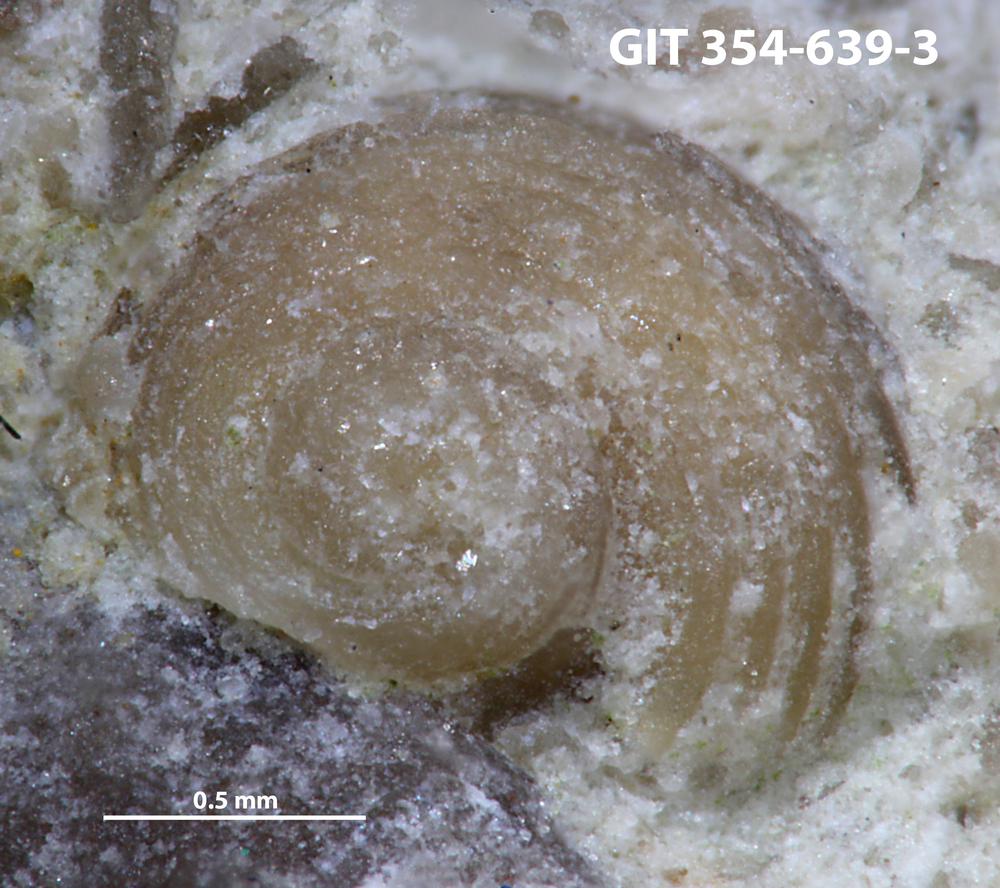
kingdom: Animalia
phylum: Mollusca
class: Gastropoda
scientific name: Gastropoda
